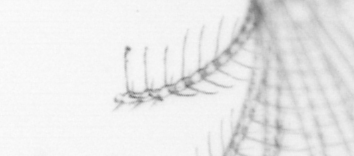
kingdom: Animalia
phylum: Arthropoda
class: Maxillopoda
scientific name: Maxillopoda
